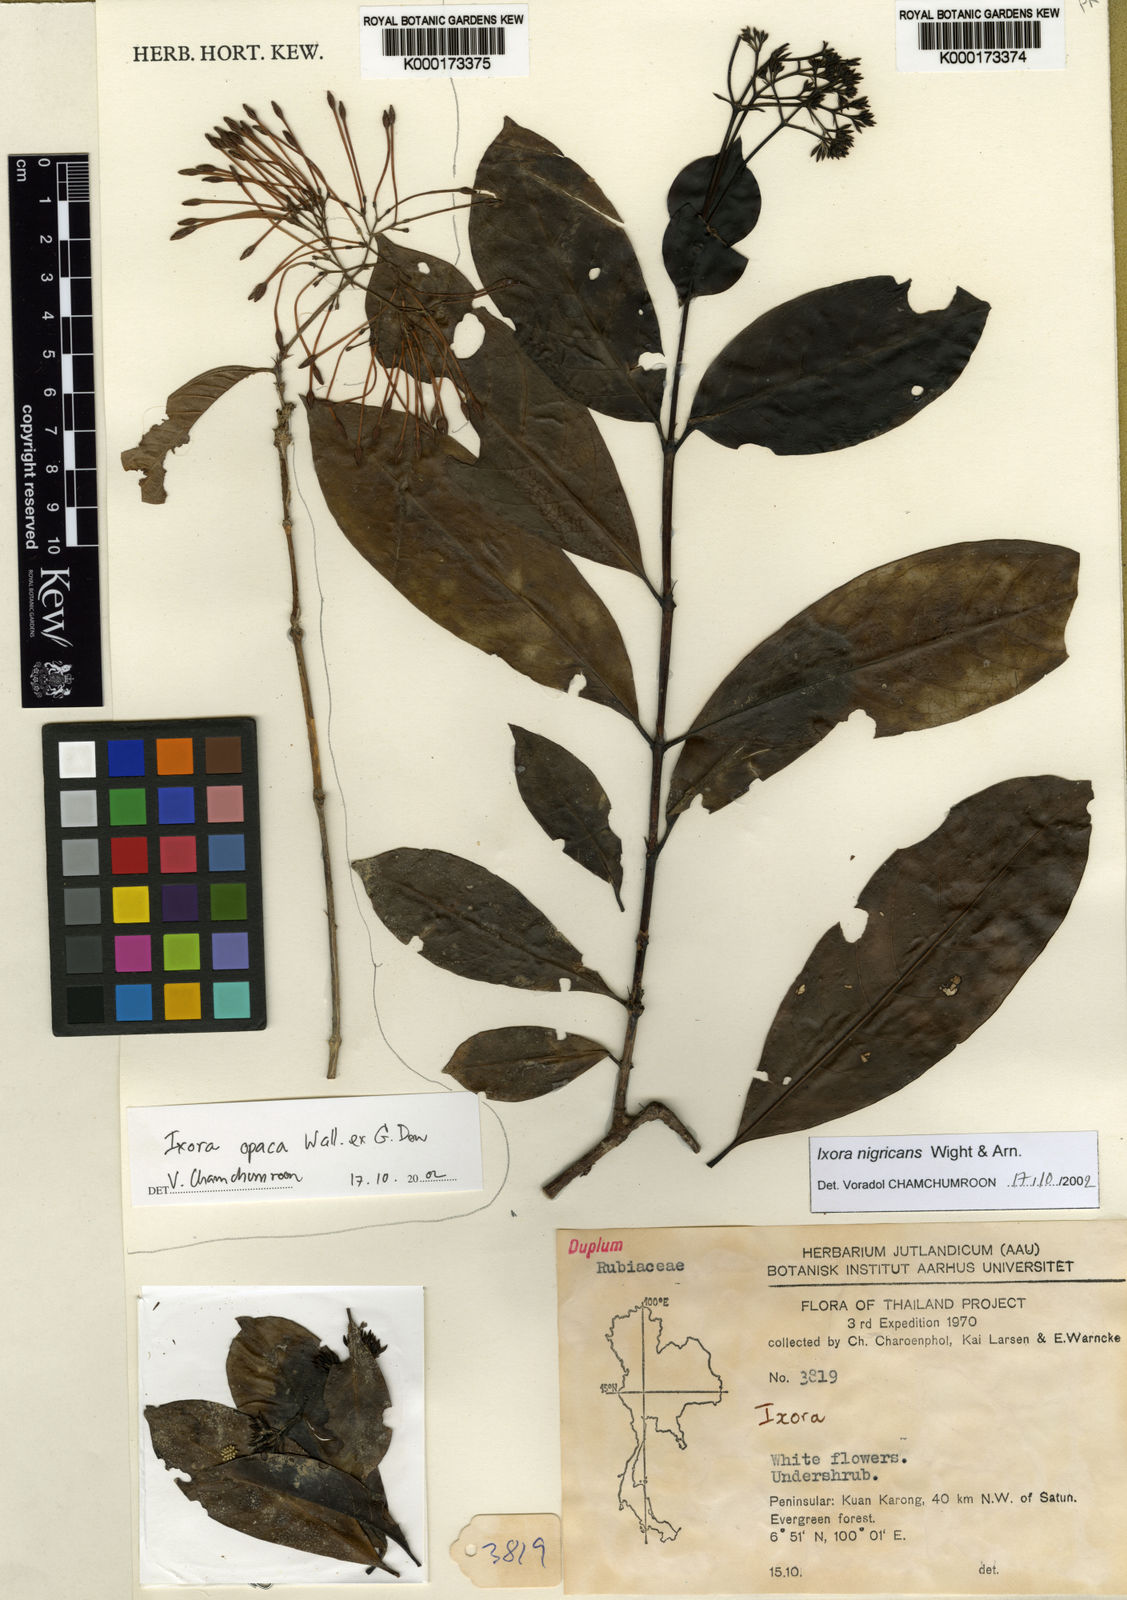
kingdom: Plantae
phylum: Tracheophyta
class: Magnoliopsida
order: Gentianales
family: Rubiaceae
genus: Ixora
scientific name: Ixora nigricans
